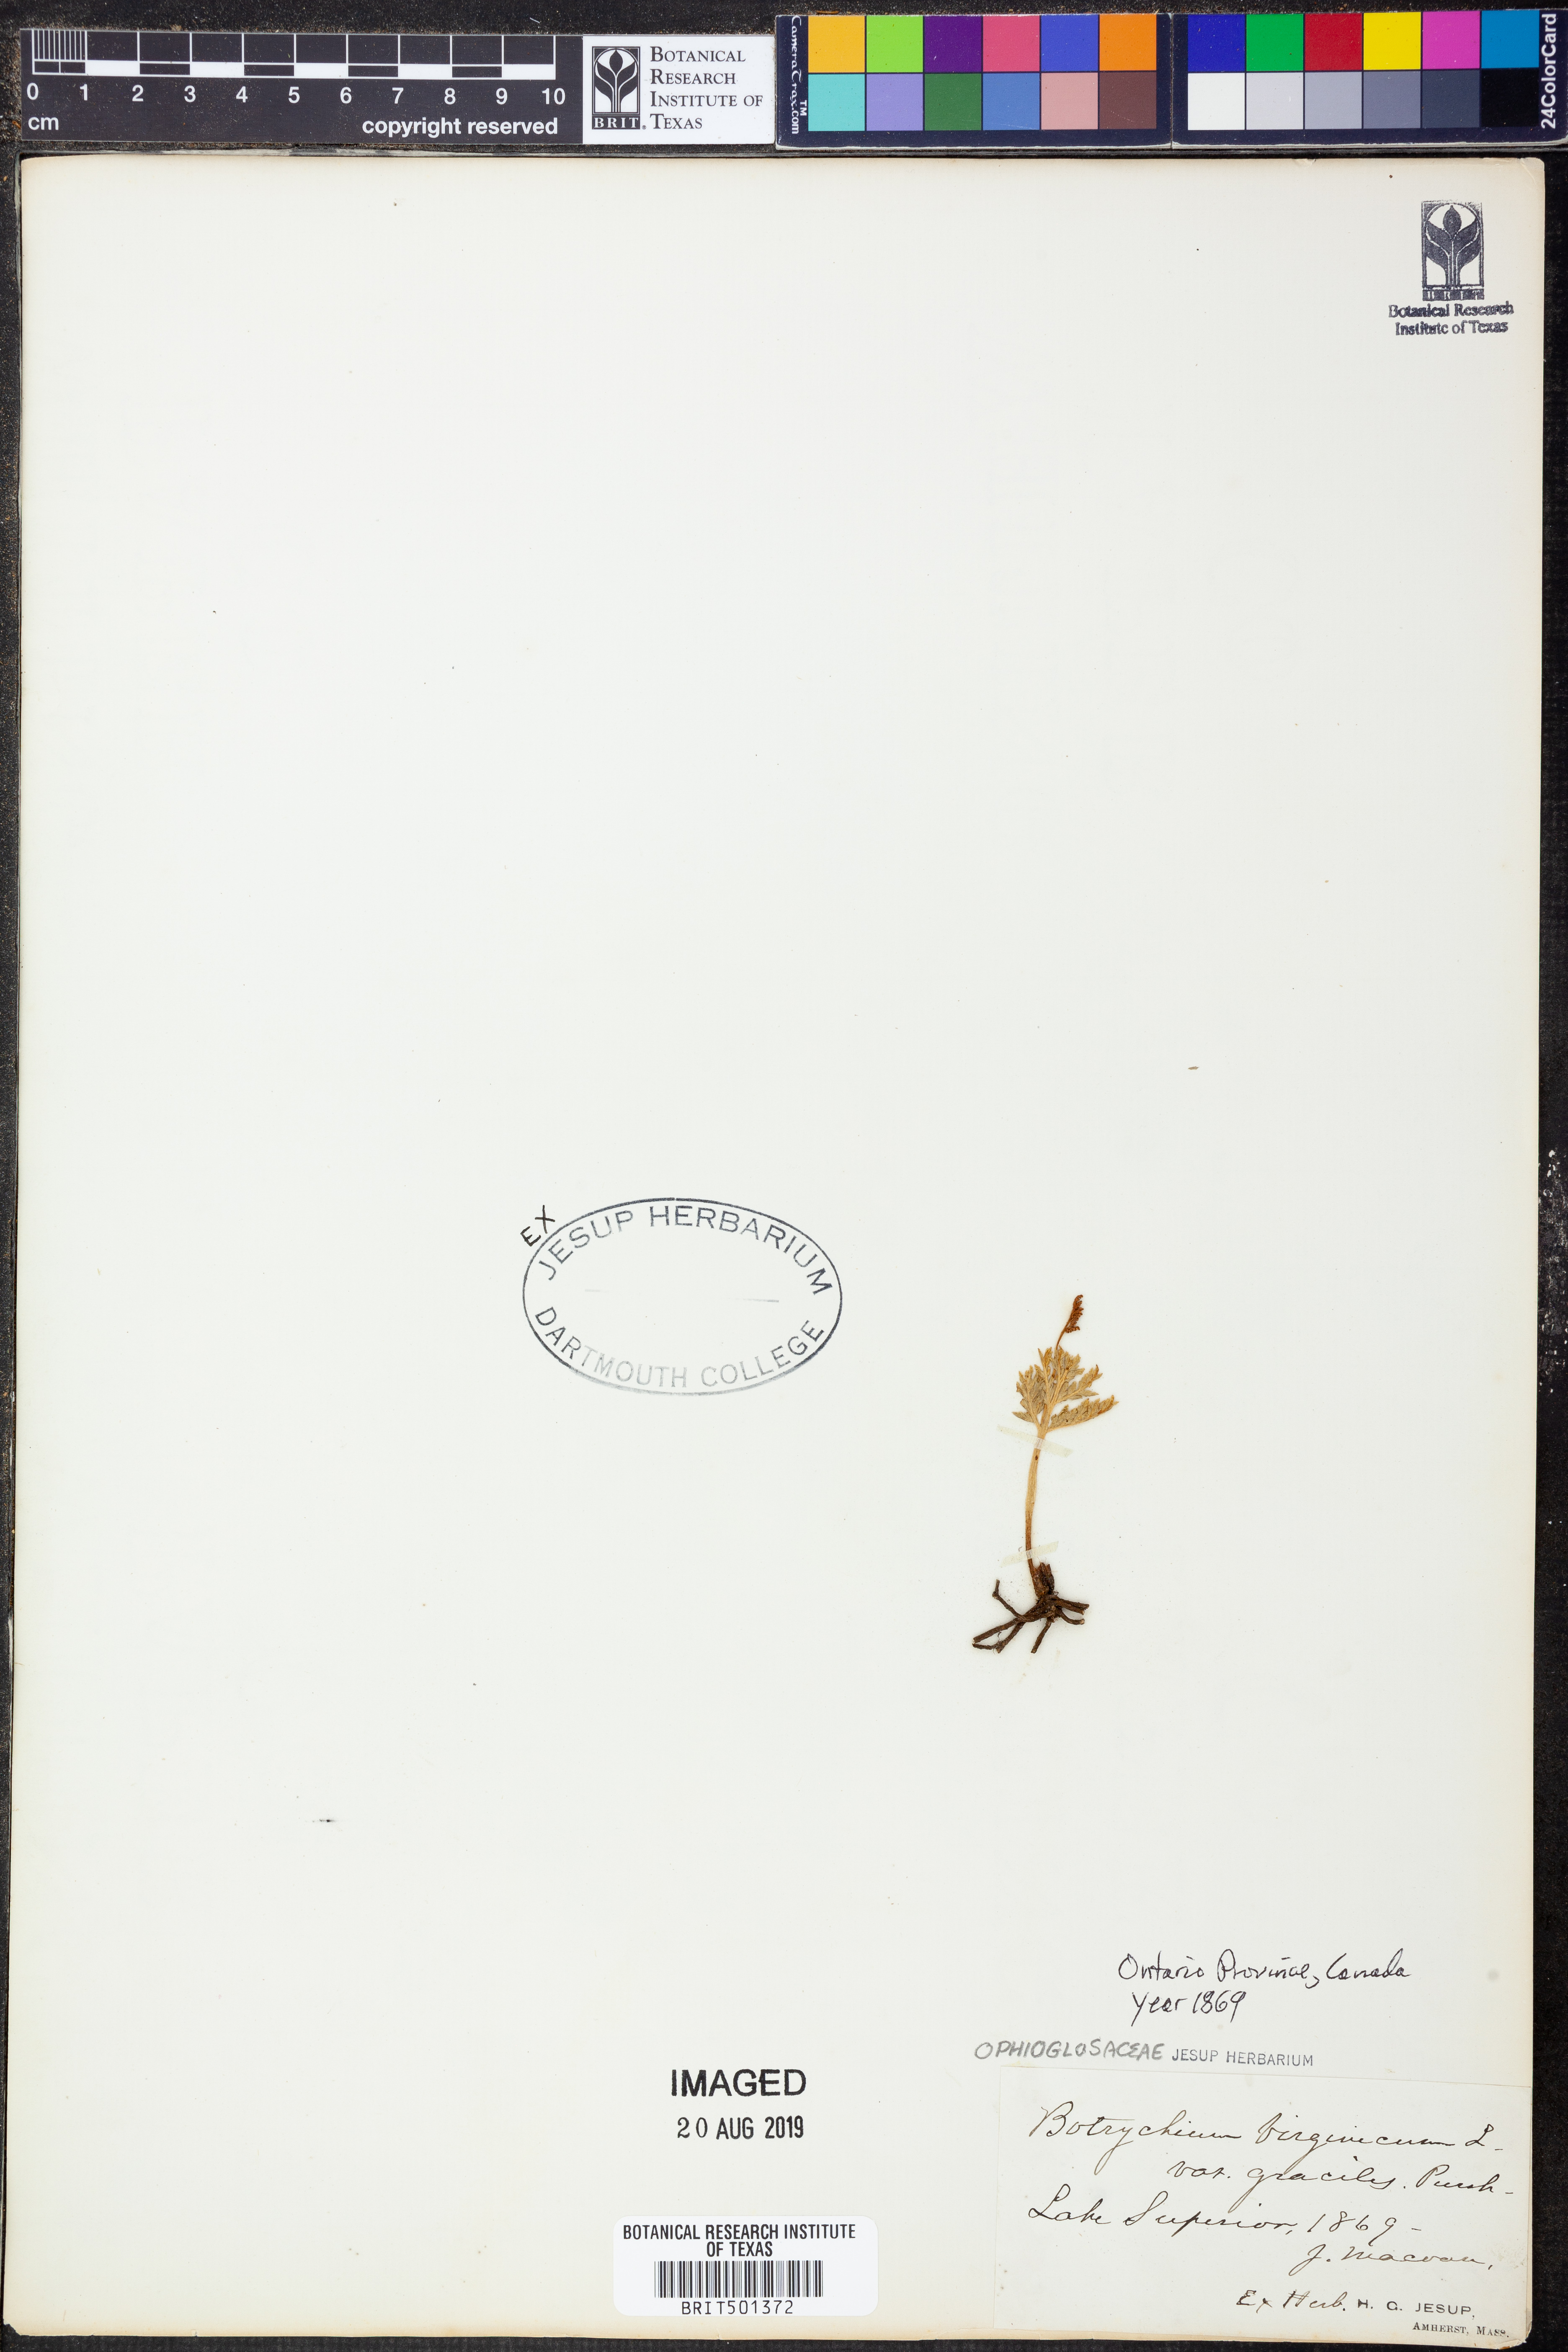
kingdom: Plantae
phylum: Tracheophyta
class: Polypodiopsida
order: Ophioglossales
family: Ophioglossaceae
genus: Botrypus
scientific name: Botrypus virginianus
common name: Common grapefern
